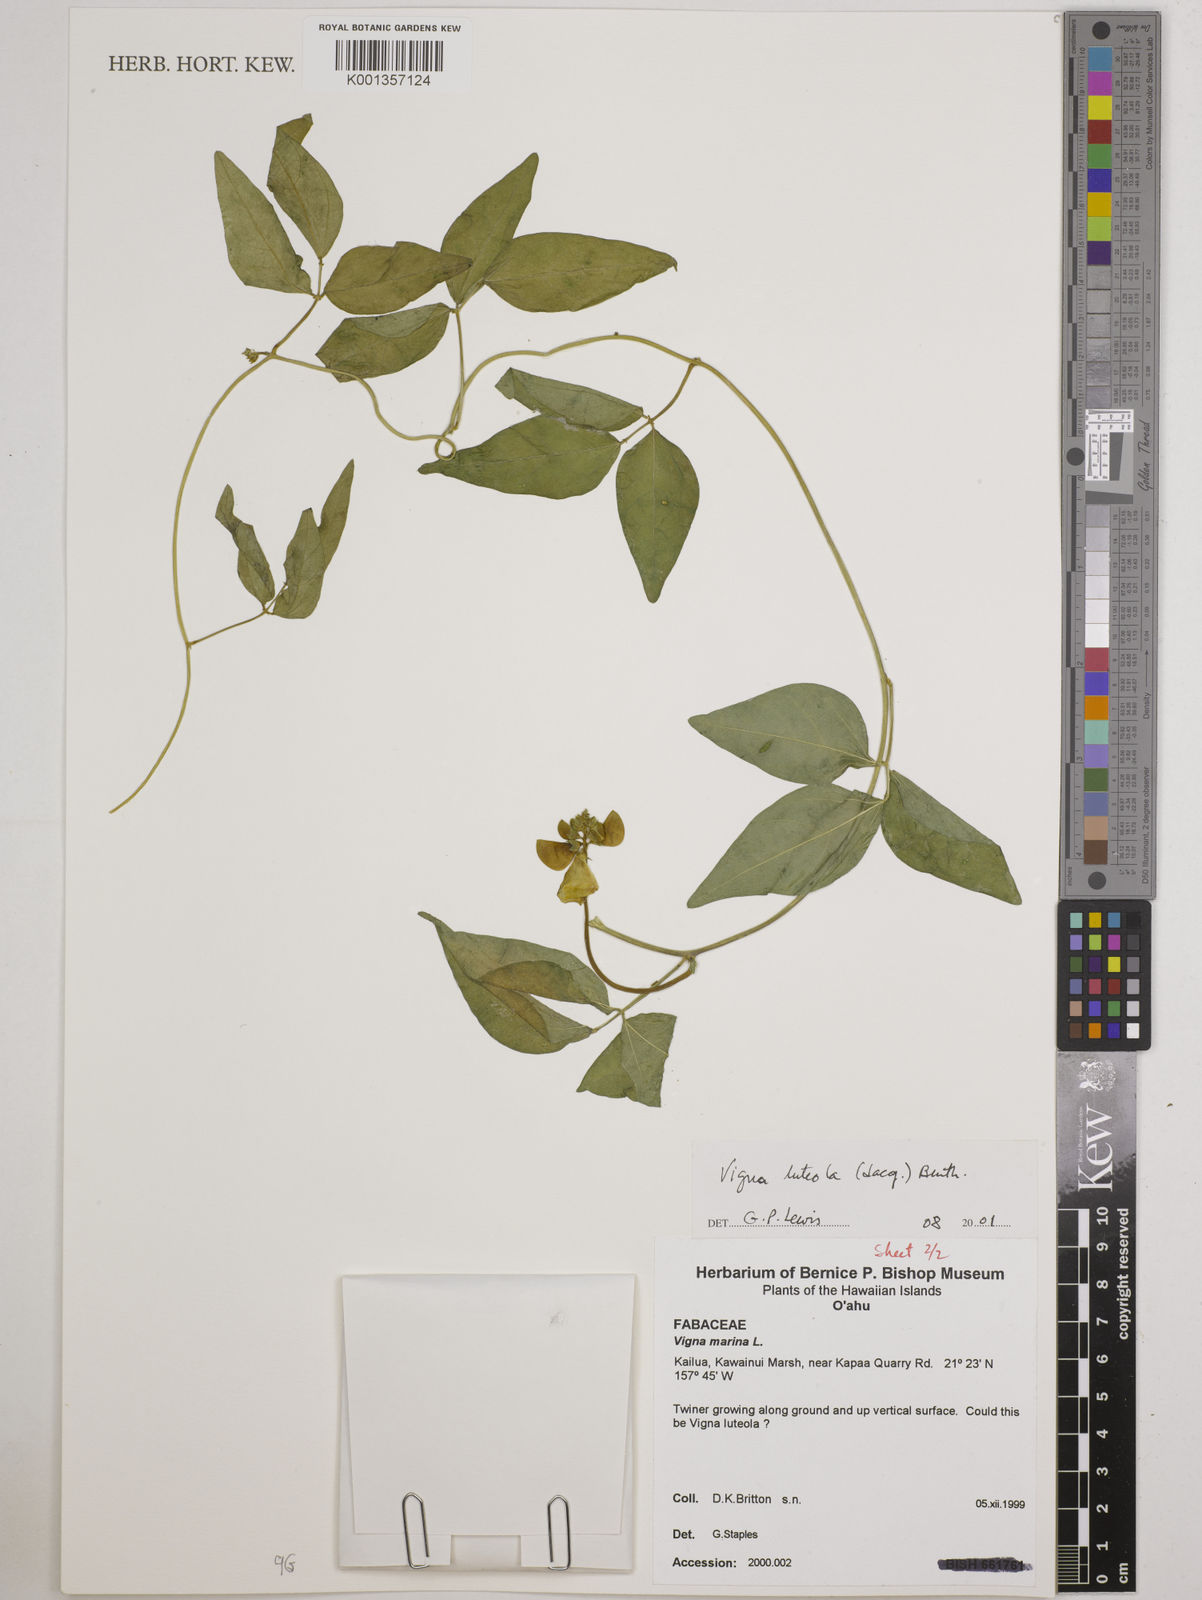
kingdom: Plantae
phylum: Tracheophyta
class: Magnoliopsida
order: Fabales
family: Fabaceae
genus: Vigna
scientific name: Vigna luteola
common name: Hairypod cowpea
